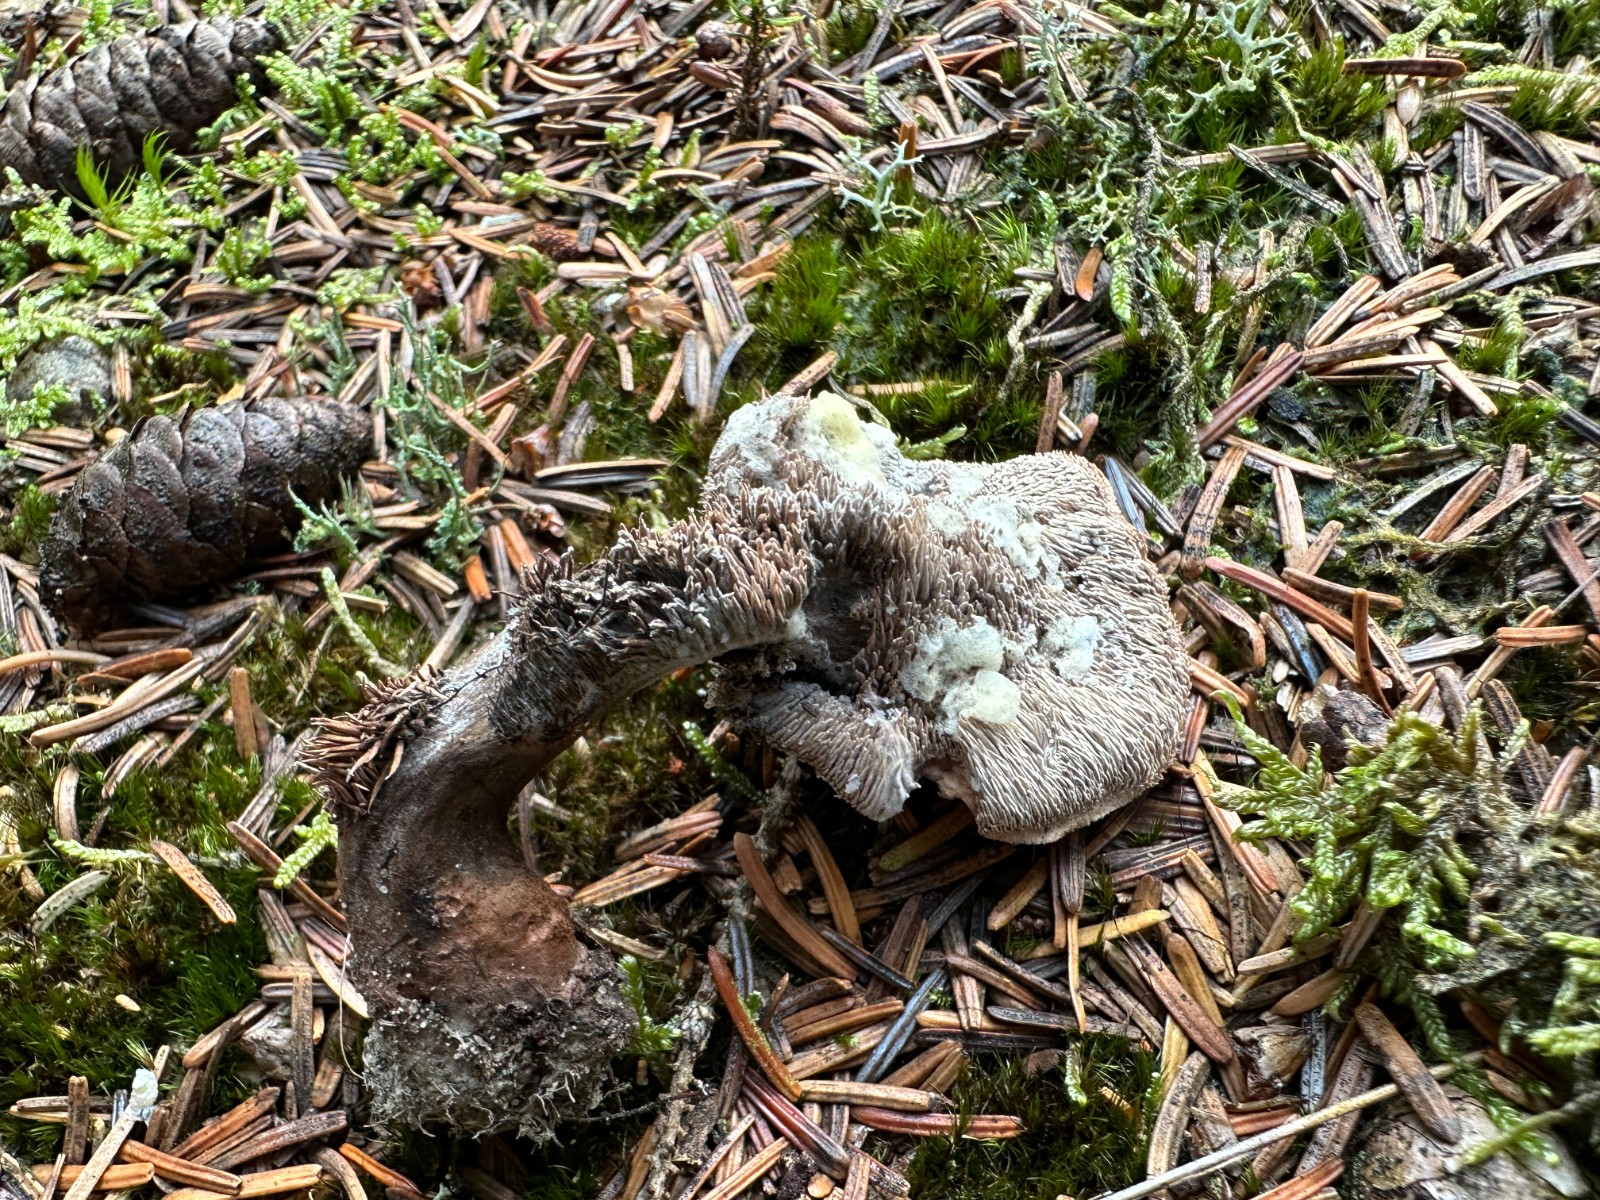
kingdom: Fungi
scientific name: Fungi
